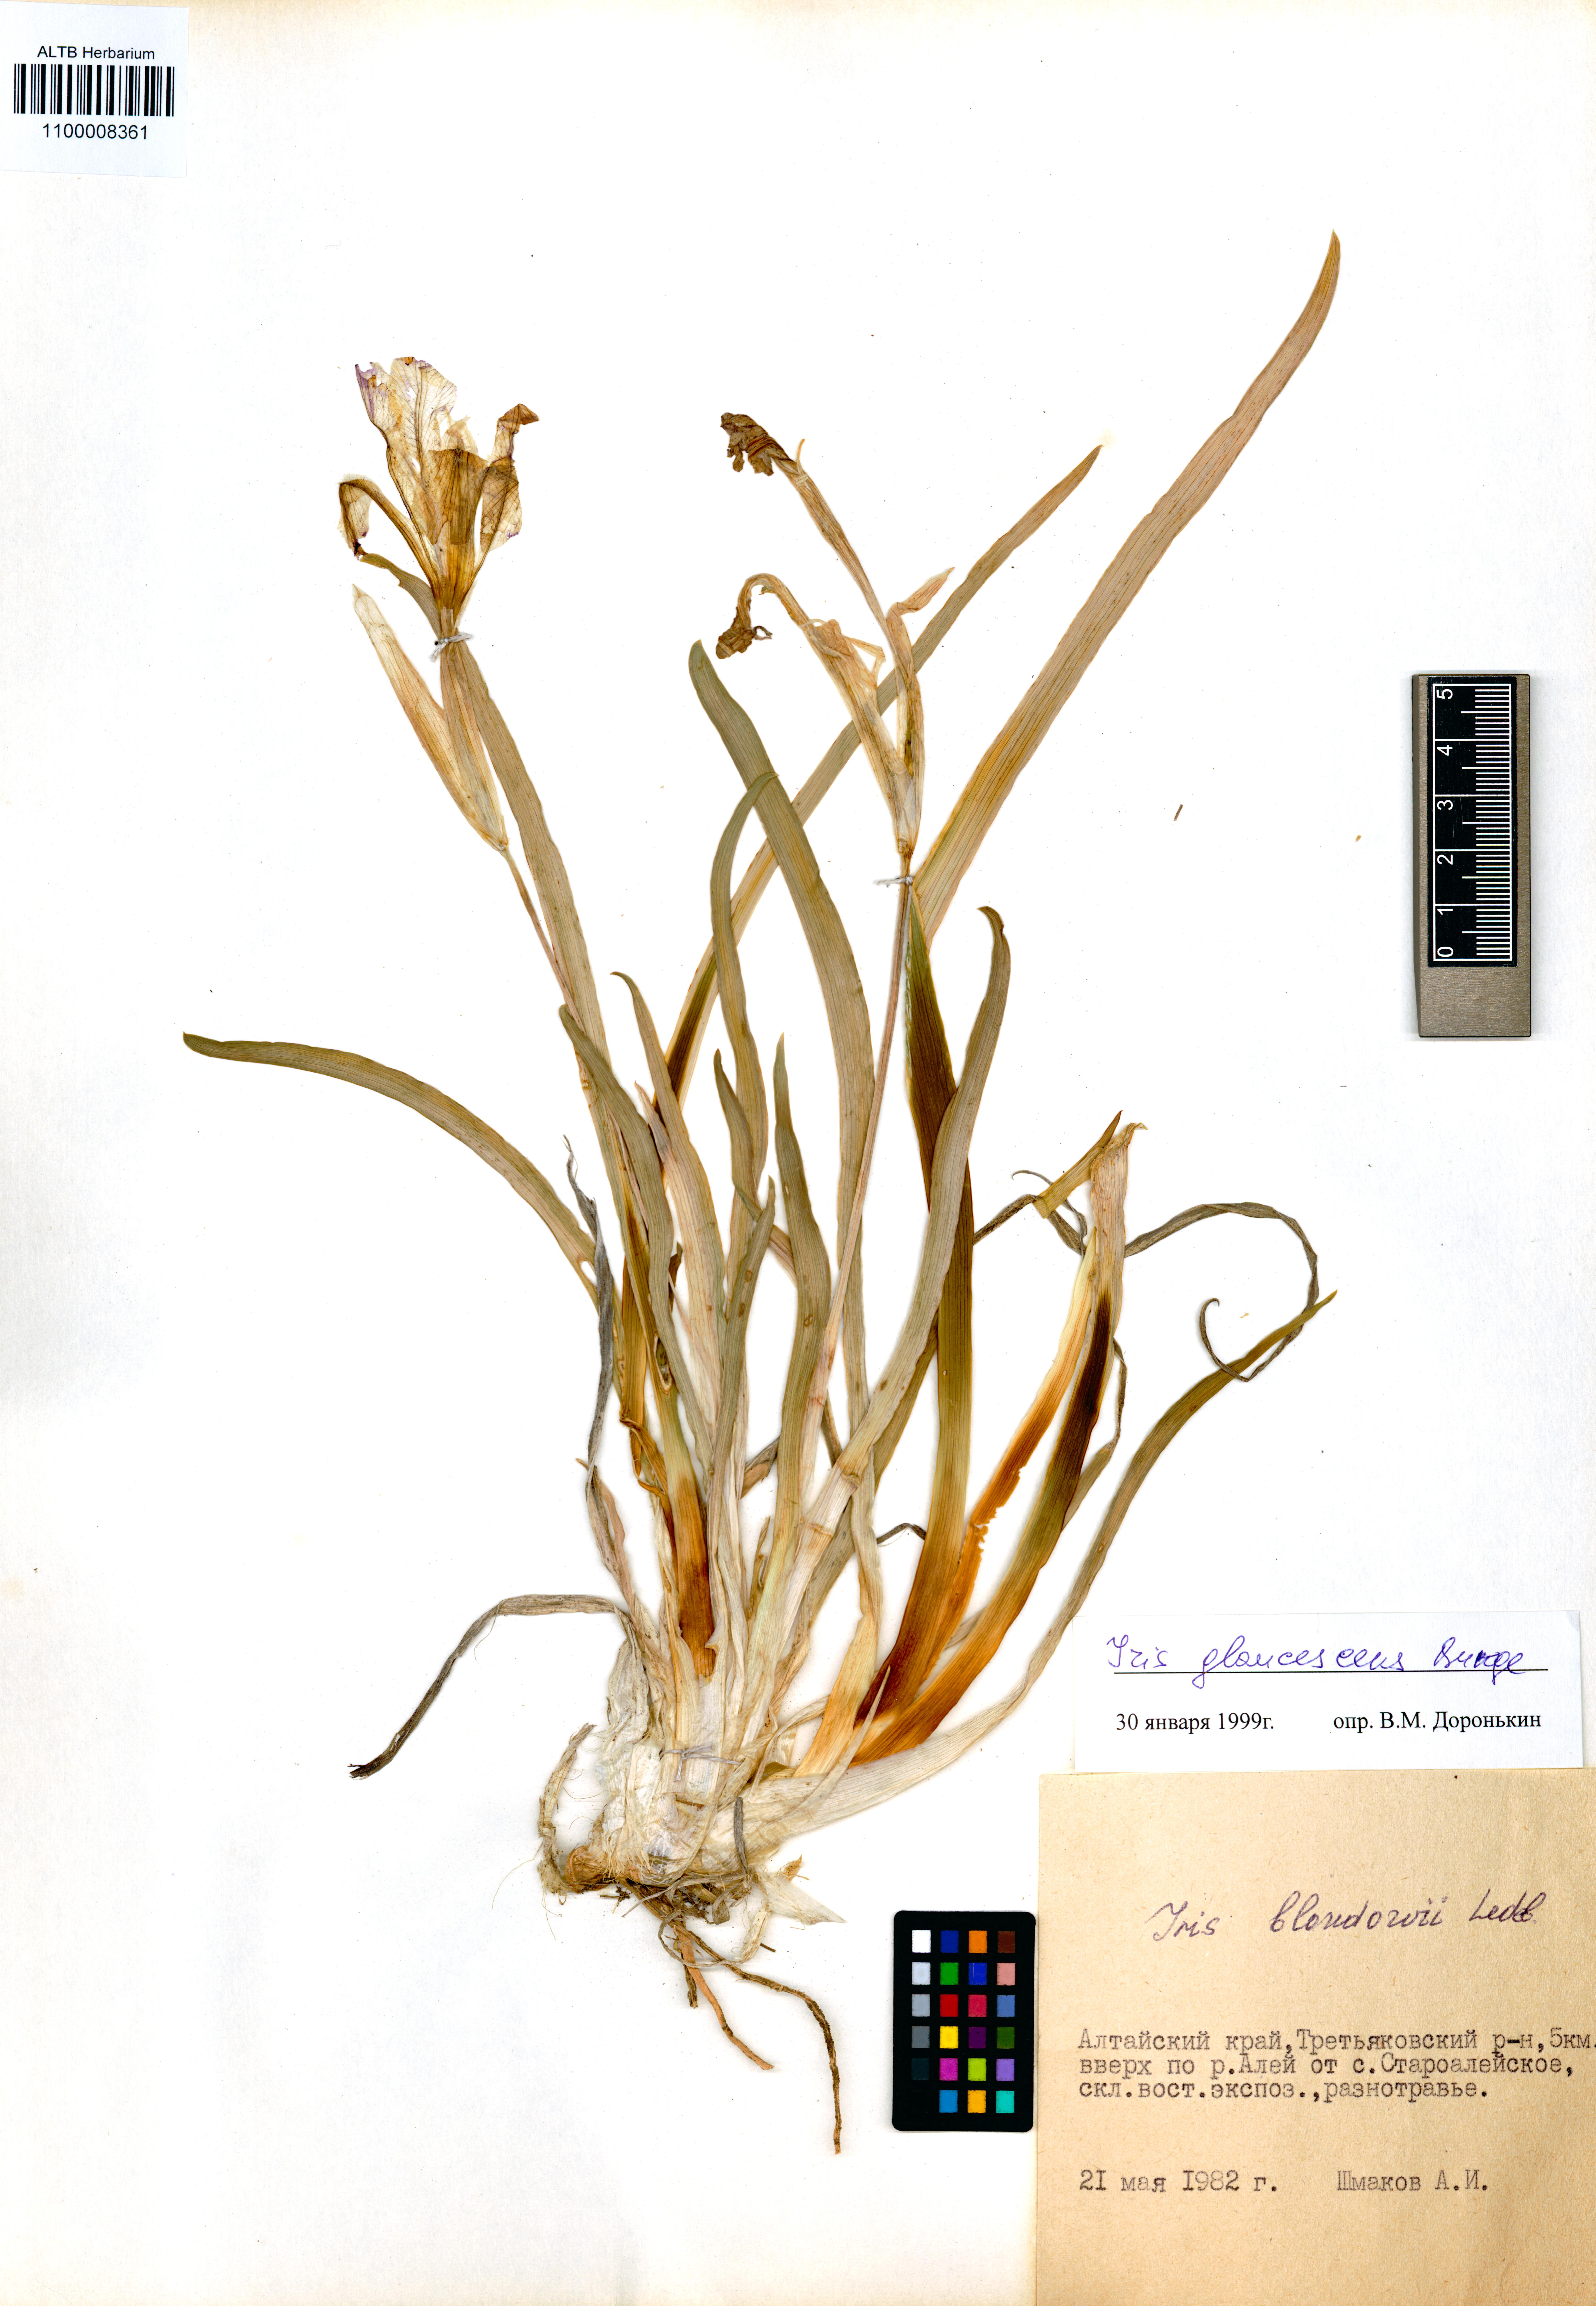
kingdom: Plantae
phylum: Tracheophyta
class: Liliopsida
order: Asparagales
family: Iridaceae
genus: Iris
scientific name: Iris glaucescens
